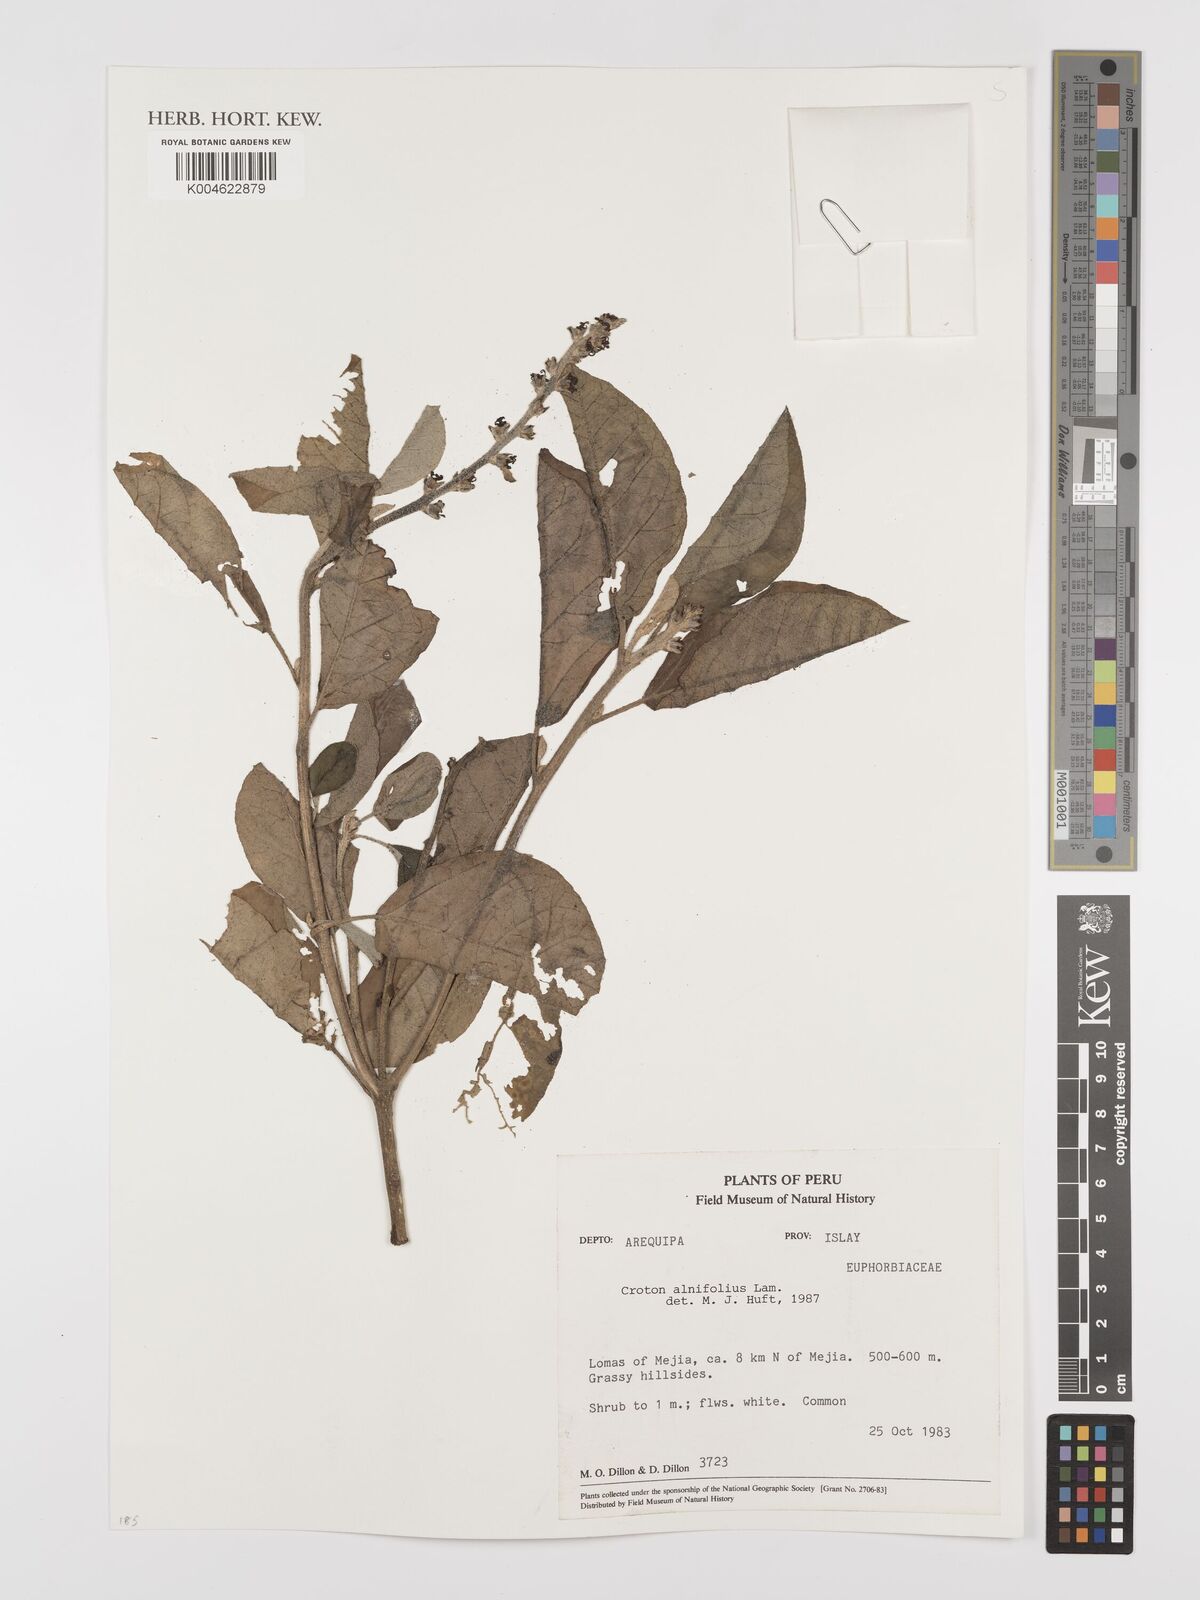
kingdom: Plantae
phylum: Tracheophyta
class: Magnoliopsida
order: Malpighiales
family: Euphorbiaceae
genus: Croton
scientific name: Croton alnifolius
